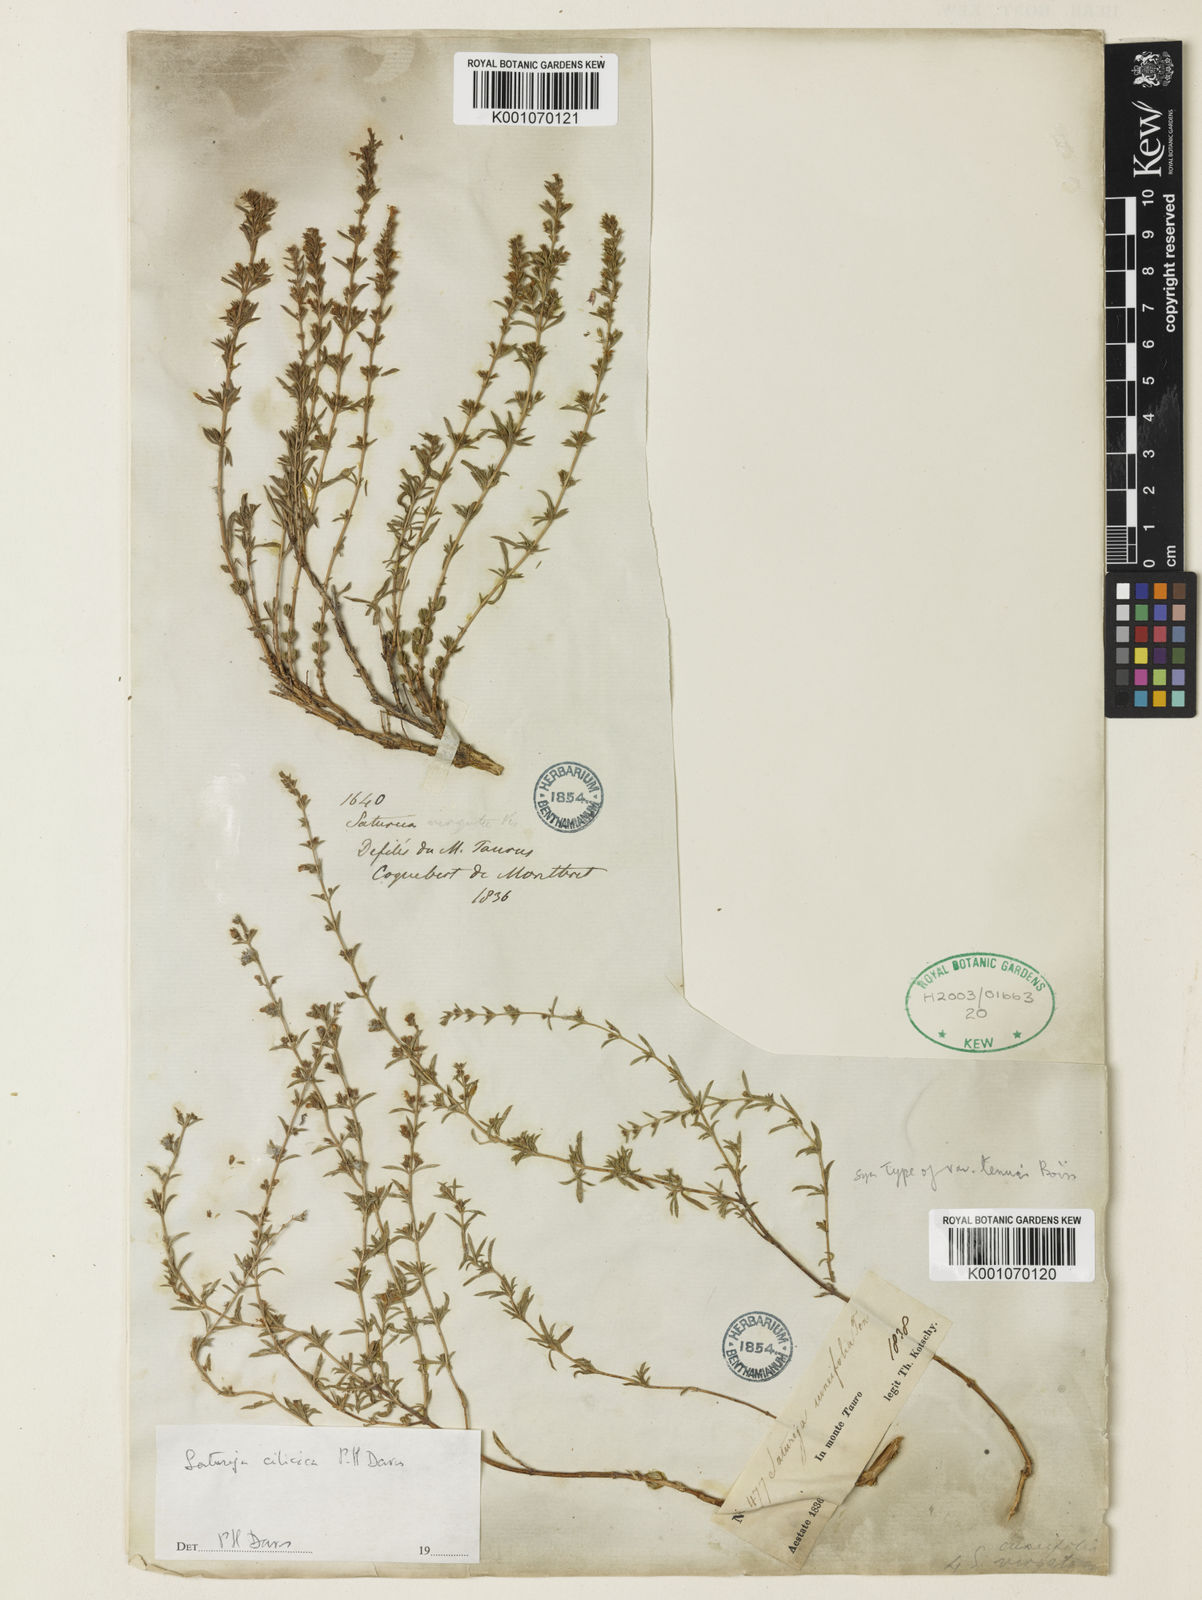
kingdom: Plantae
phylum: Tracheophyta
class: Magnoliopsida
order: Lamiales
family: Lamiaceae
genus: Satureja
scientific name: Satureja cuneifolia
